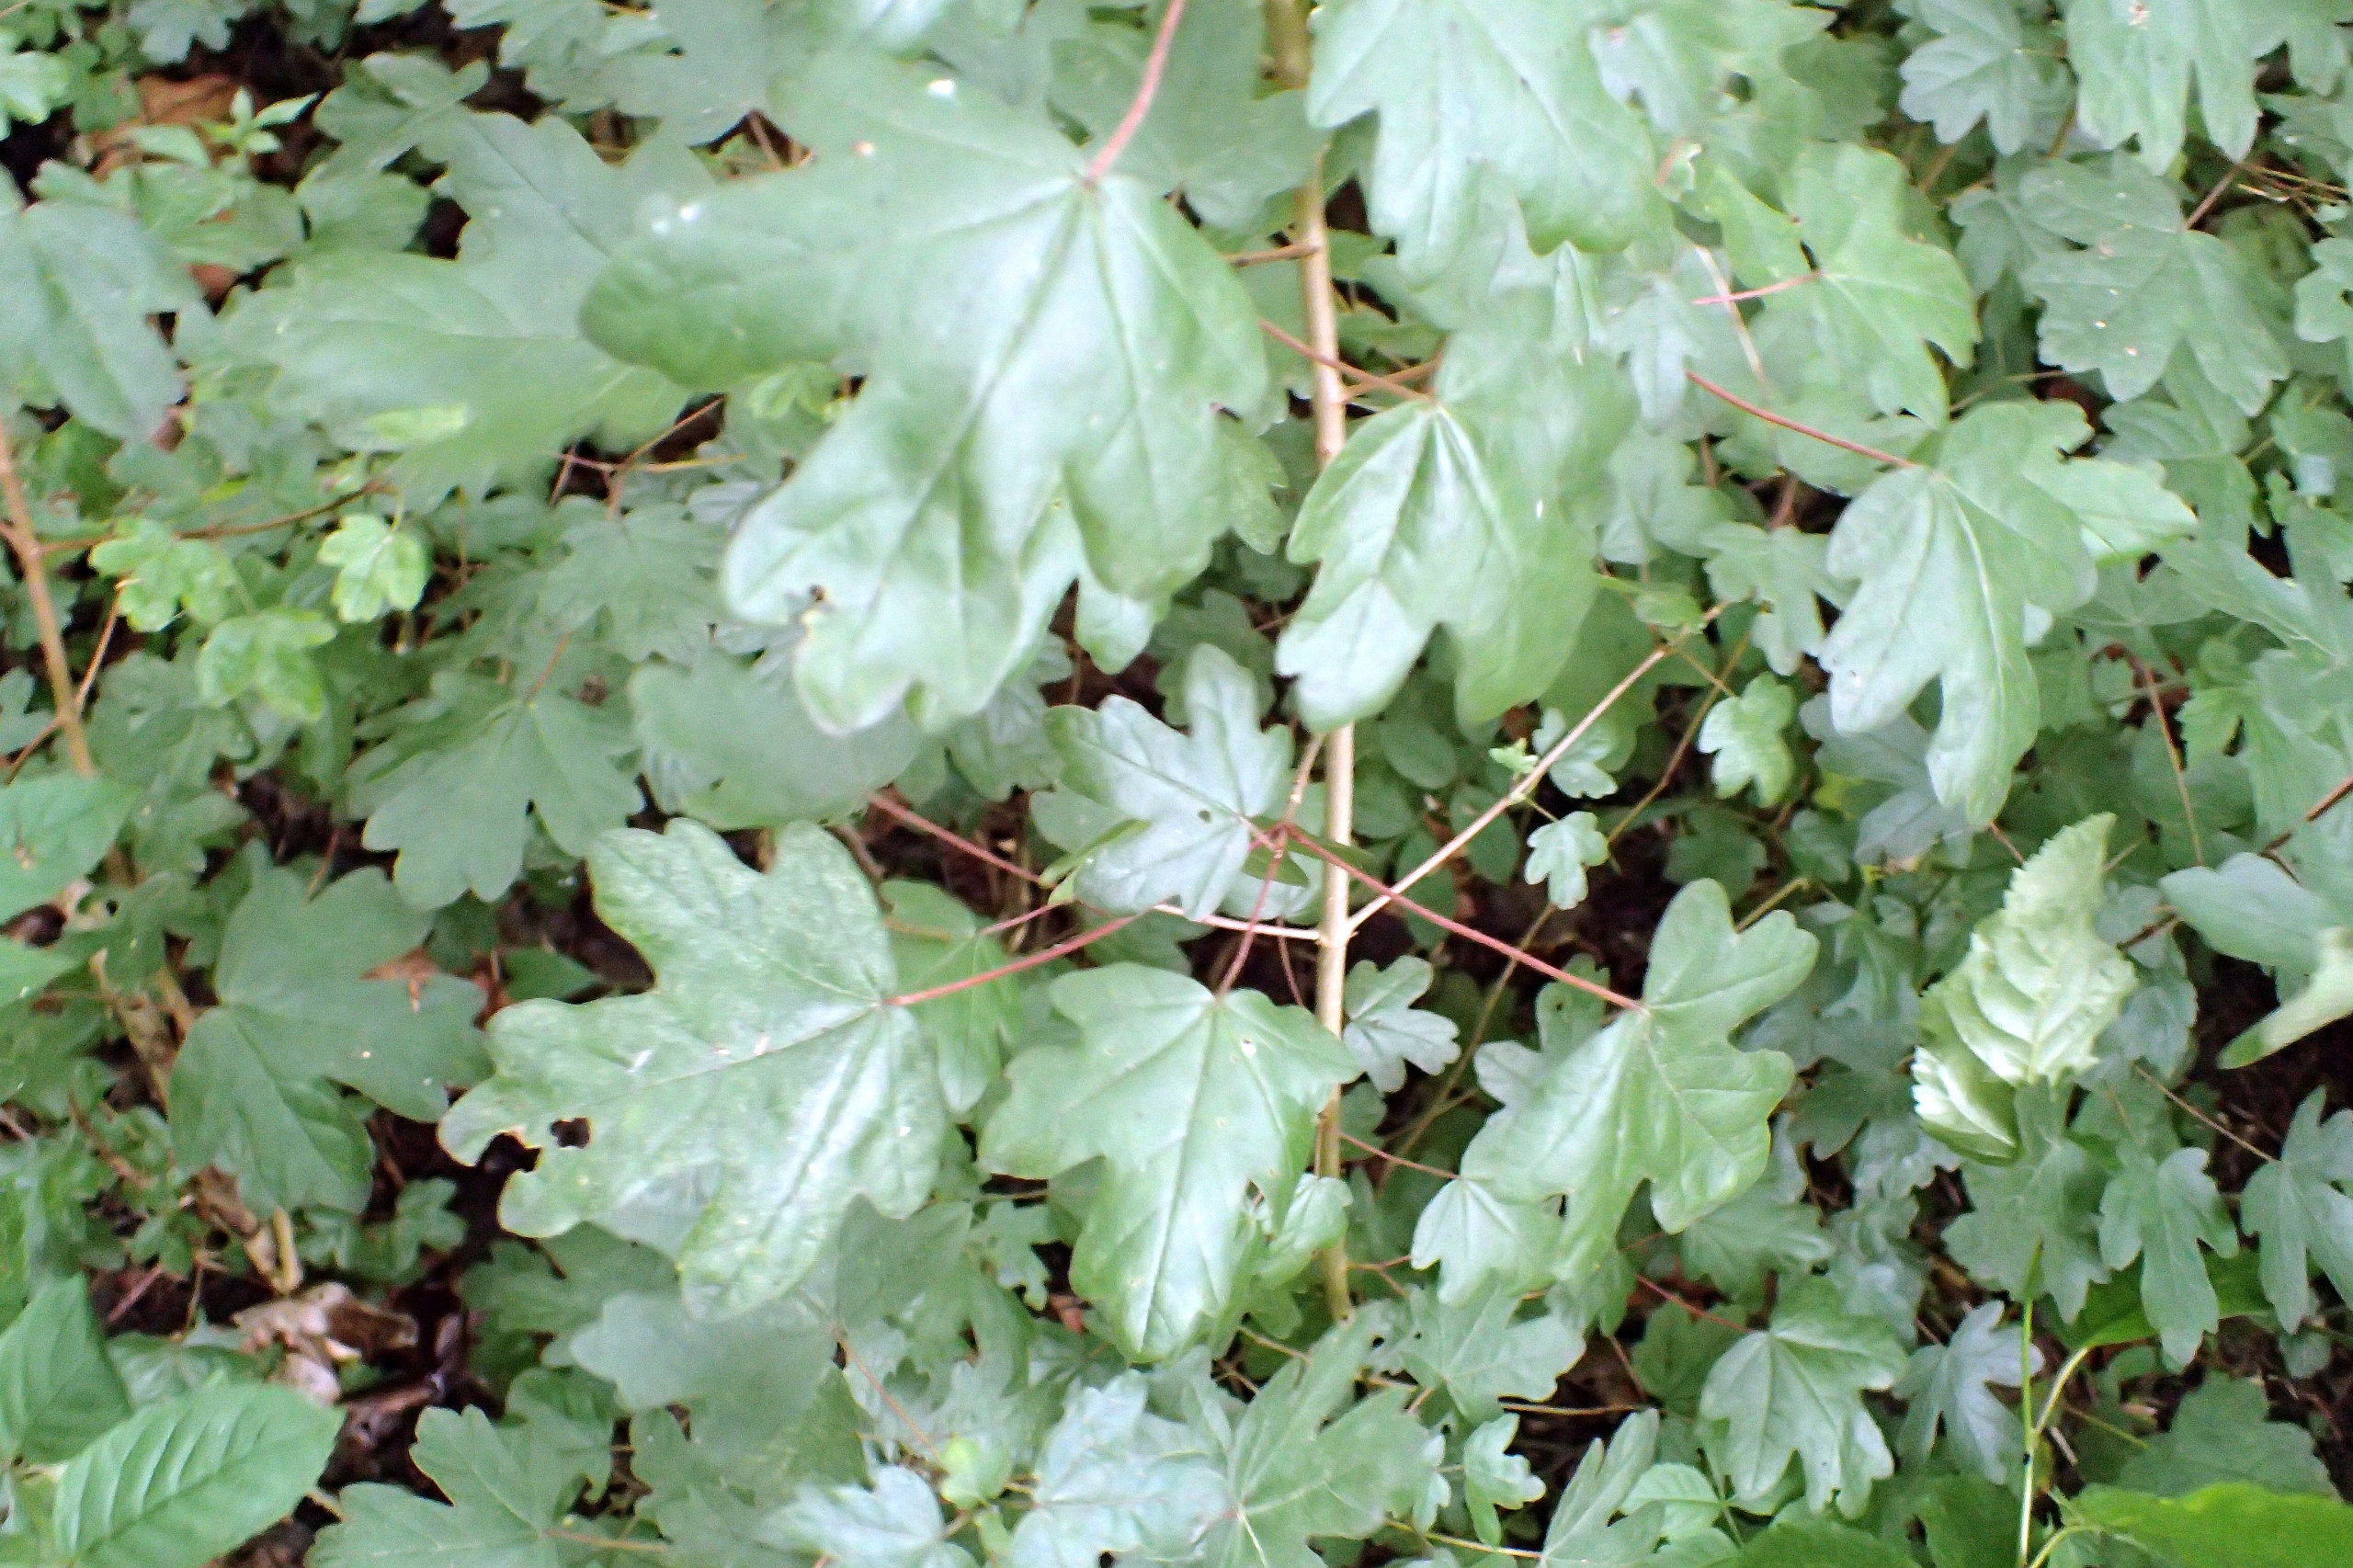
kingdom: Plantae
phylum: Tracheophyta
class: Magnoliopsida
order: Sapindales
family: Sapindaceae
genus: Acer
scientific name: Acer campestre
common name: Navr
